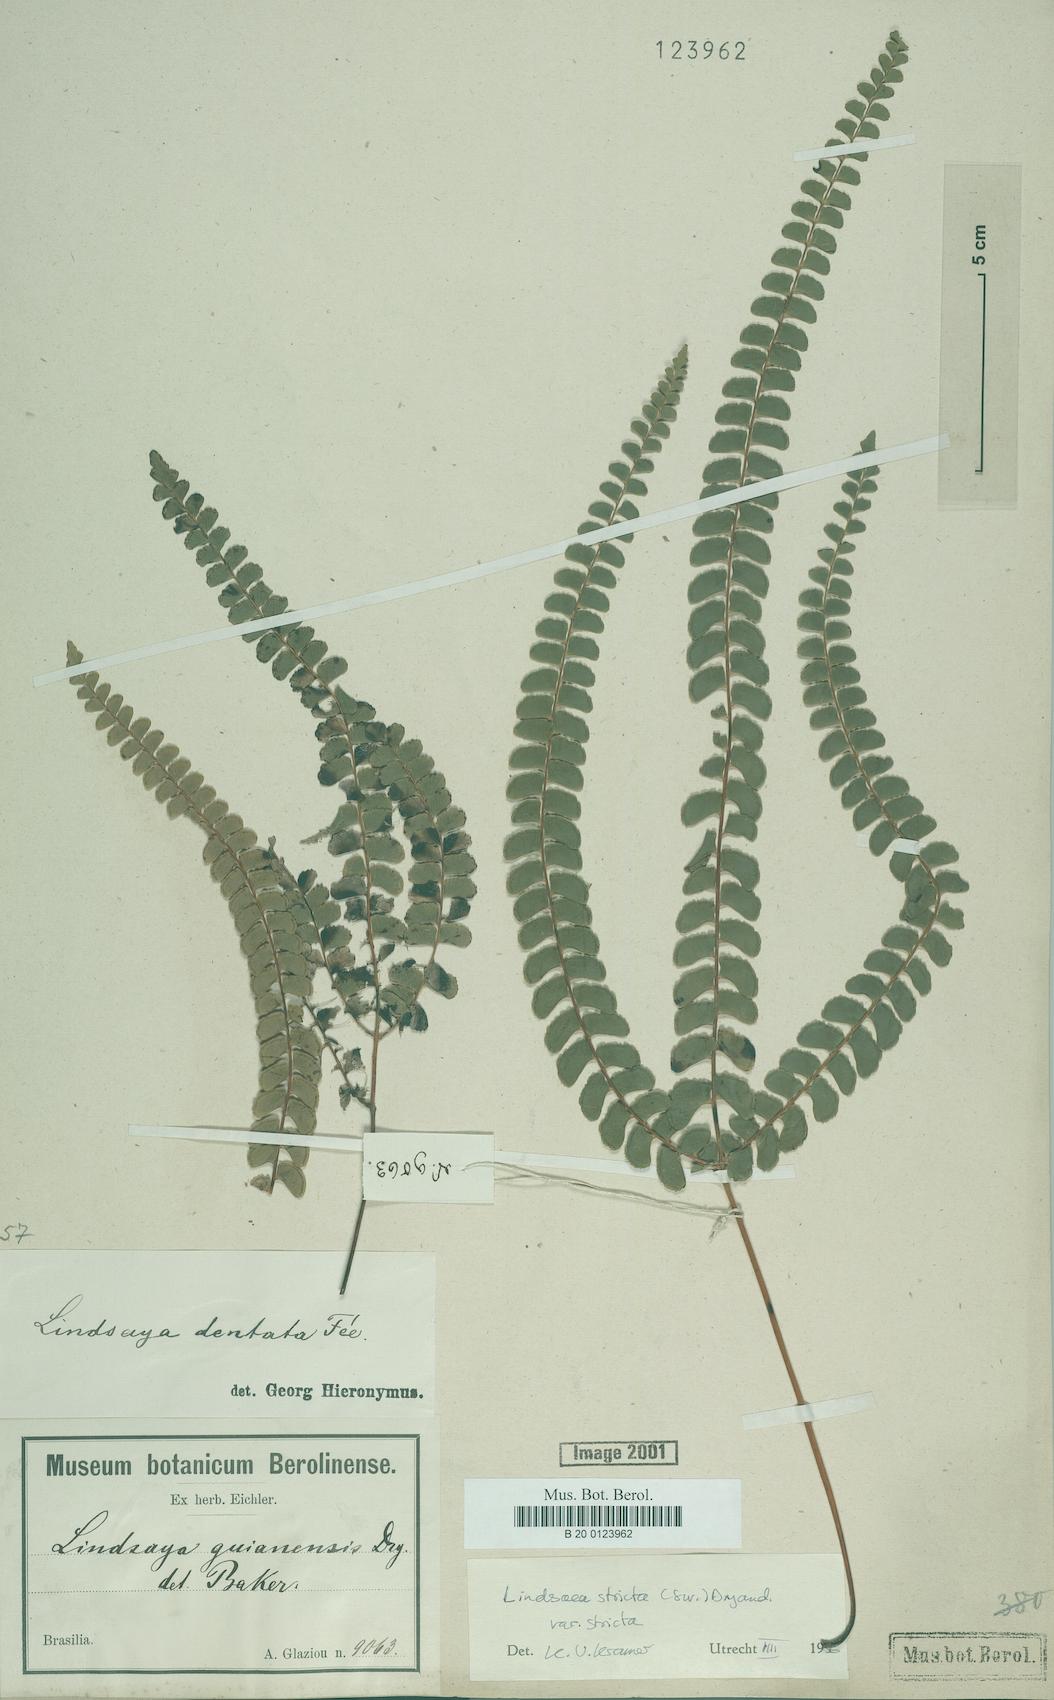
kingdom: Plantae
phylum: Tracheophyta
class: Polypodiopsida
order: Polypodiales
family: Lindsaeaceae
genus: Lindsaea
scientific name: Lindsaea stricta
